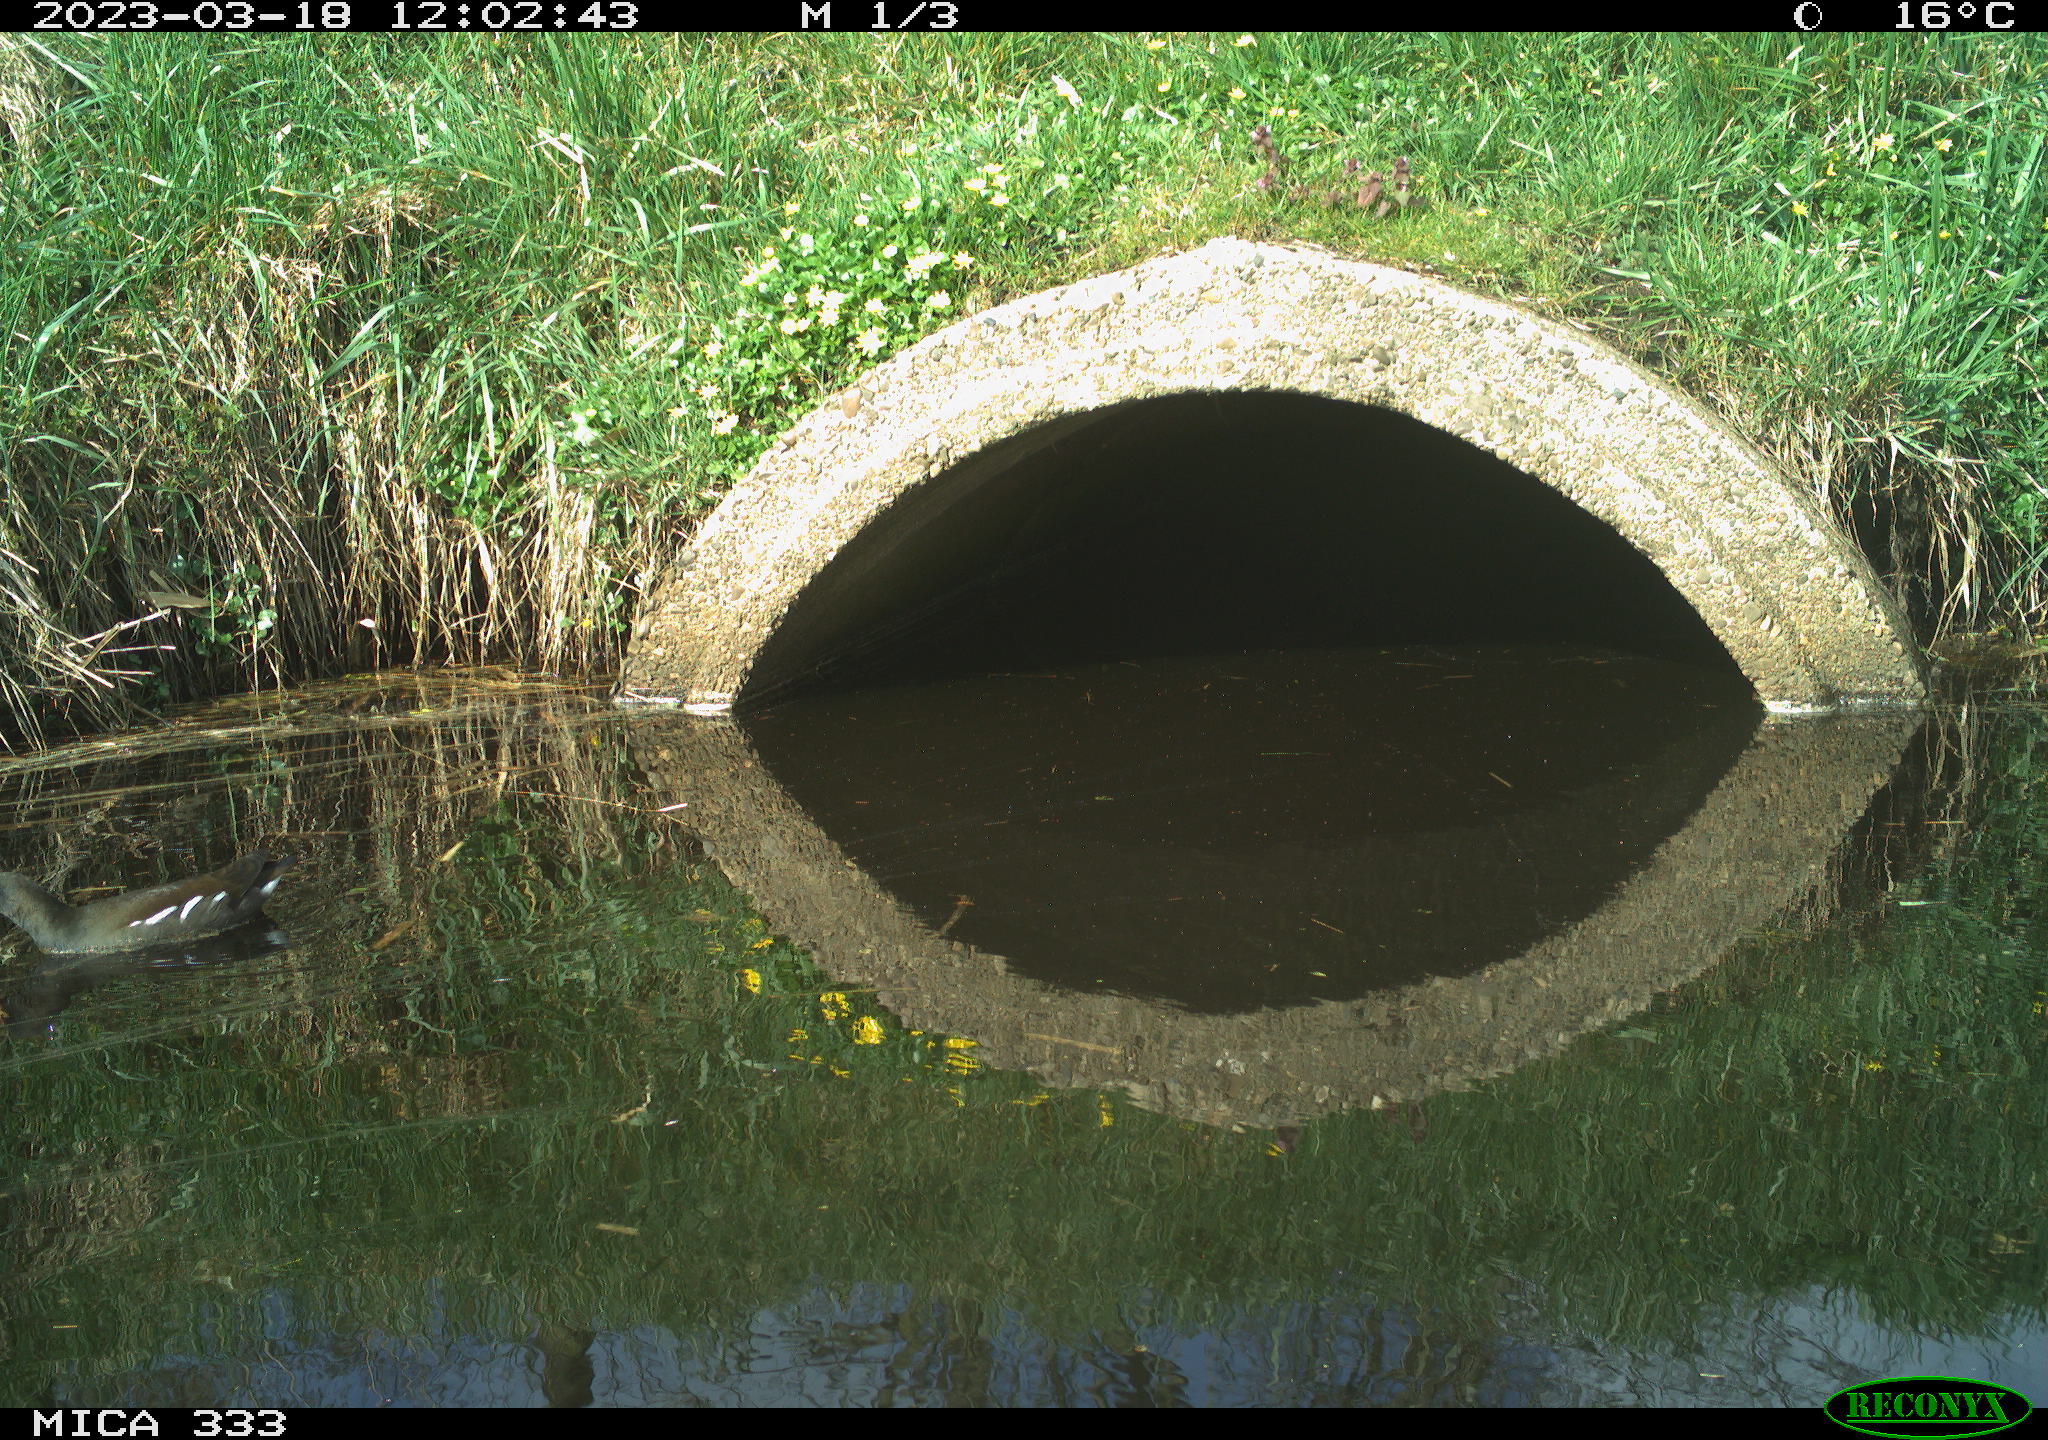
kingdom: Animalia
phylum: Chordata
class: Aves
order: Gruiformes
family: Rallidae
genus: Gallinula
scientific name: Gallinula chloropus
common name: Common moorhen
